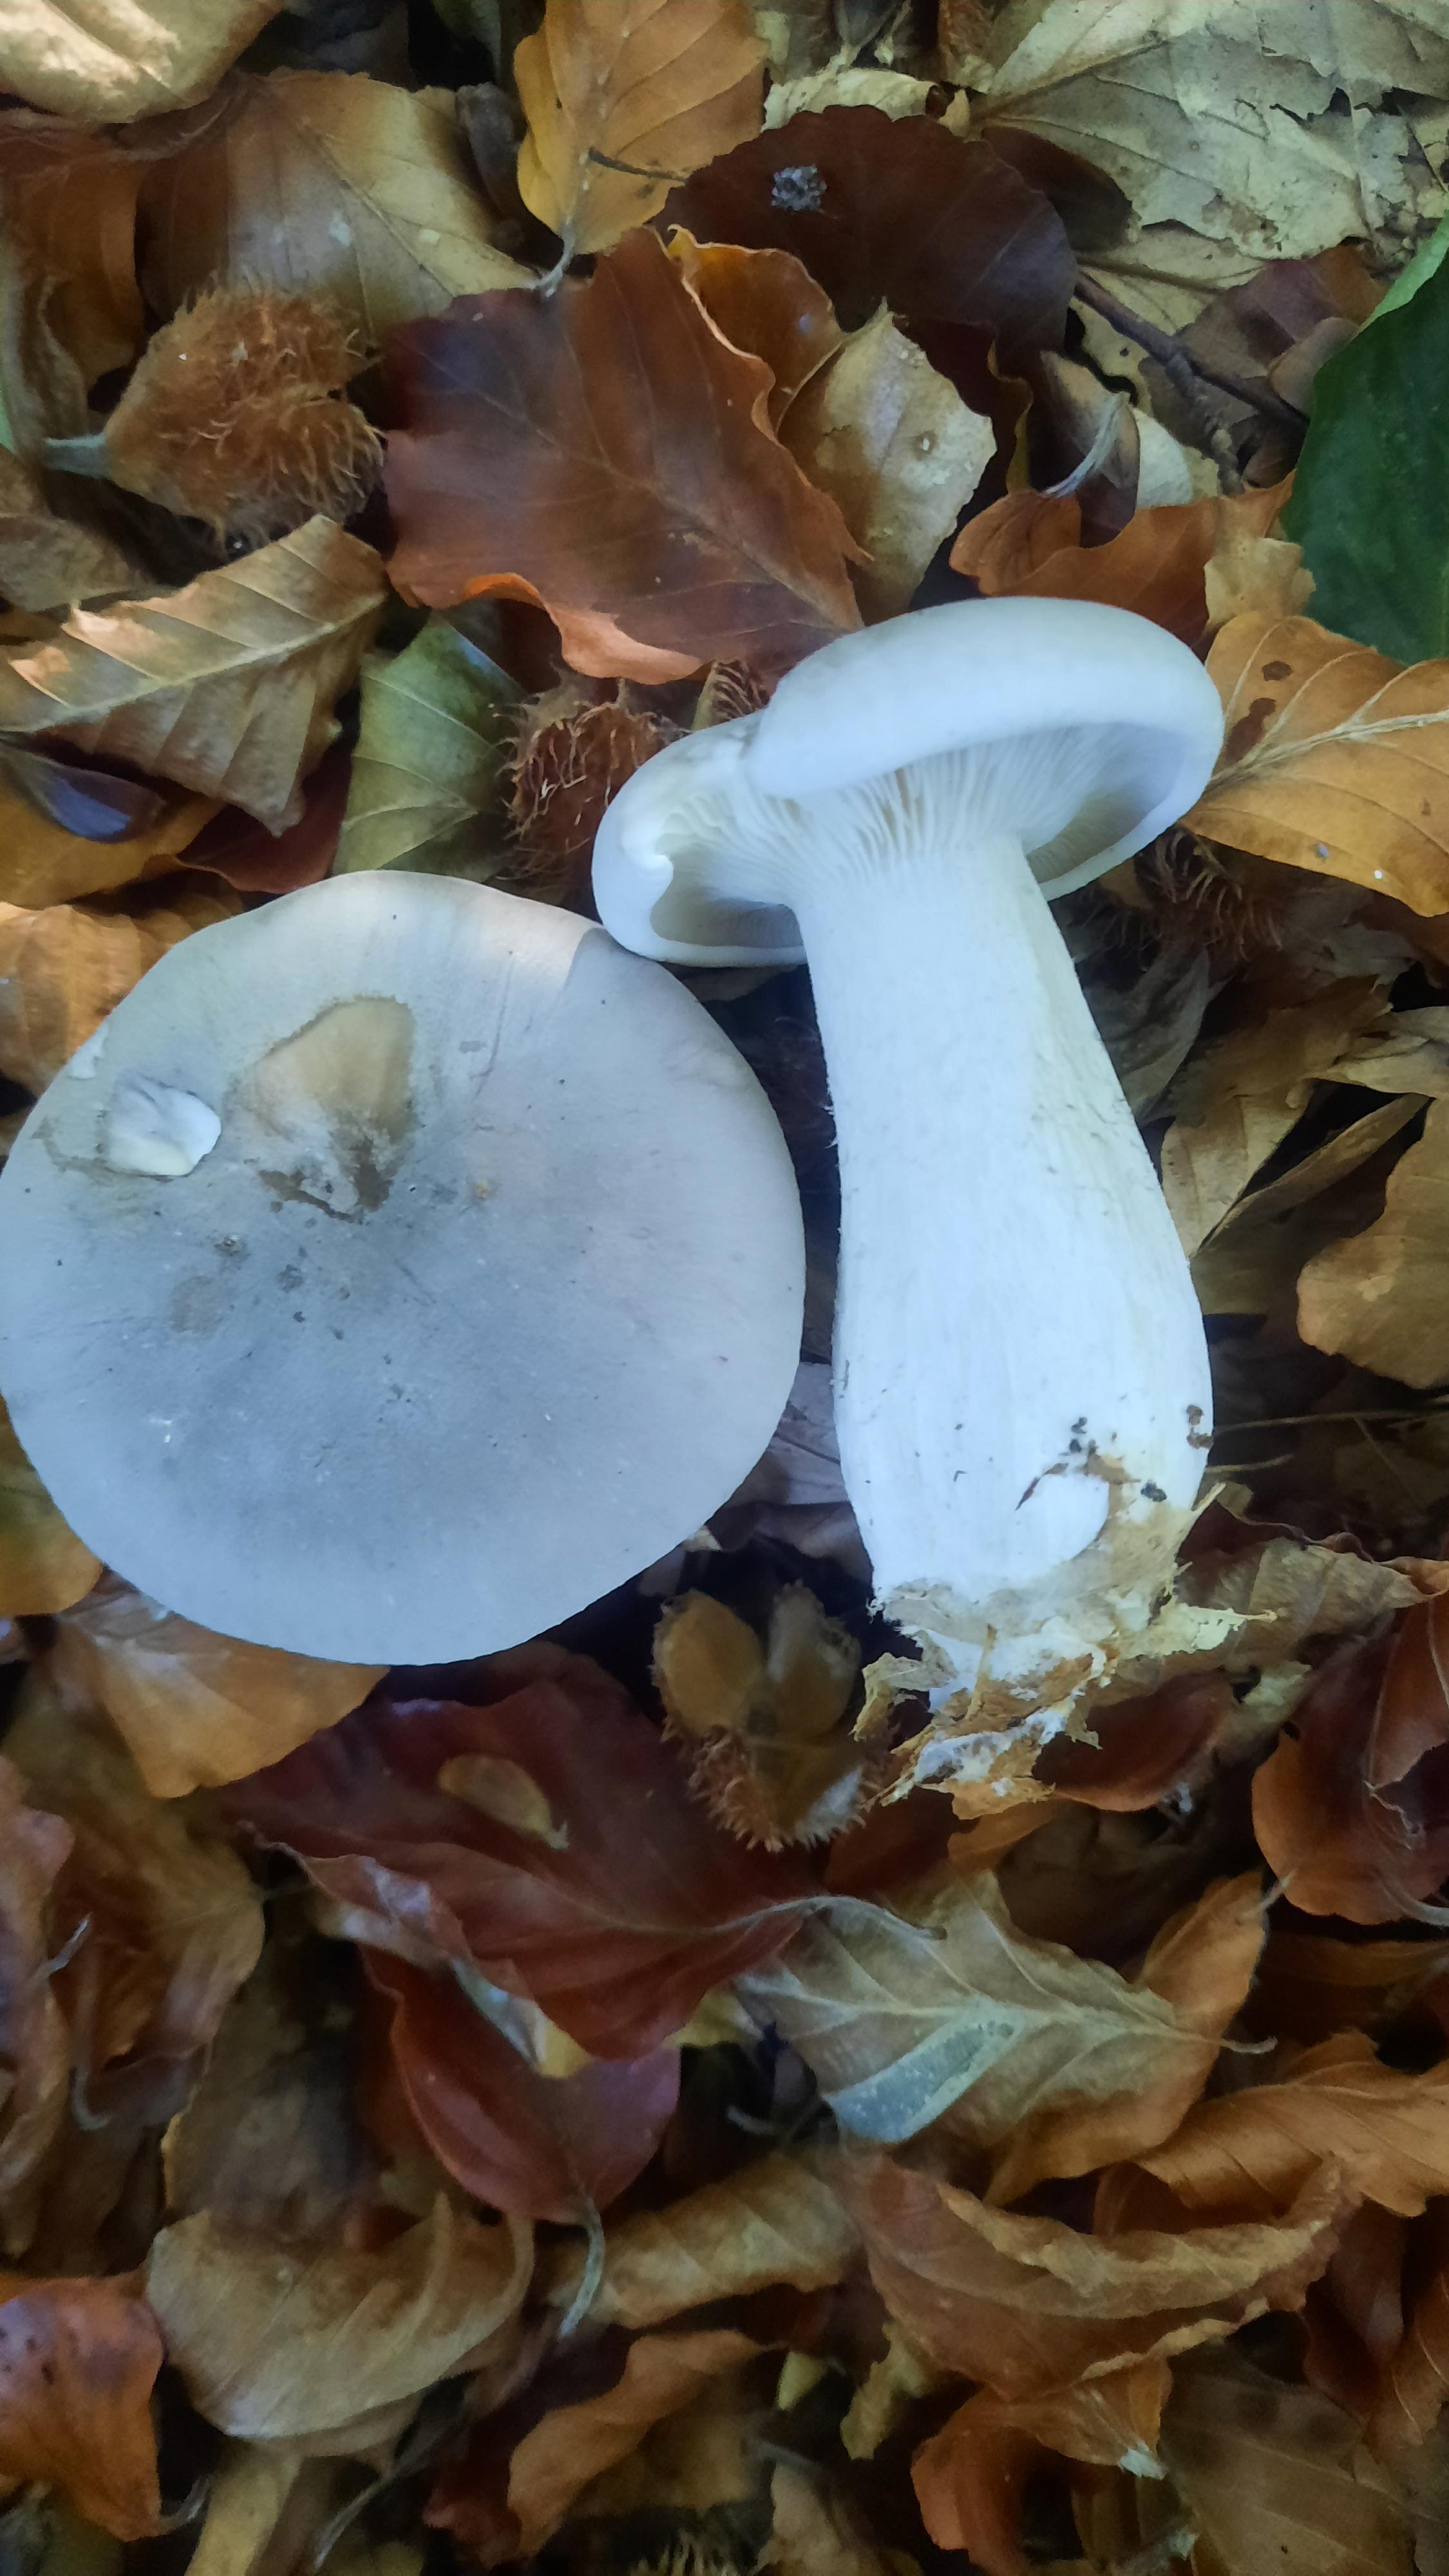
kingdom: Fungi
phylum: Basidiomycota
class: Agaricomycetes
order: Agaricales
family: Tricholomataceae
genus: Clitocybe
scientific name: Clitocybe nebularis
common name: tåge-tragthat
